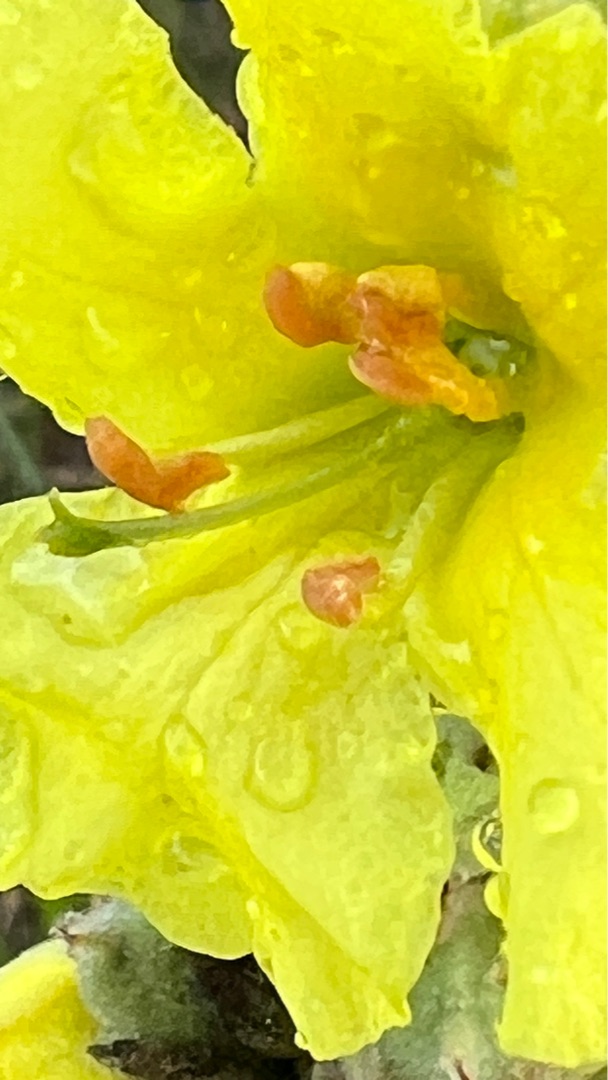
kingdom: Plantae
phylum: Tracheophyta
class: Magnoliopsida
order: Lamiales
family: Scrophulariaceae
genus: Verbascum
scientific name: Verbascum densiflorum
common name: Uldbladet kongelys
